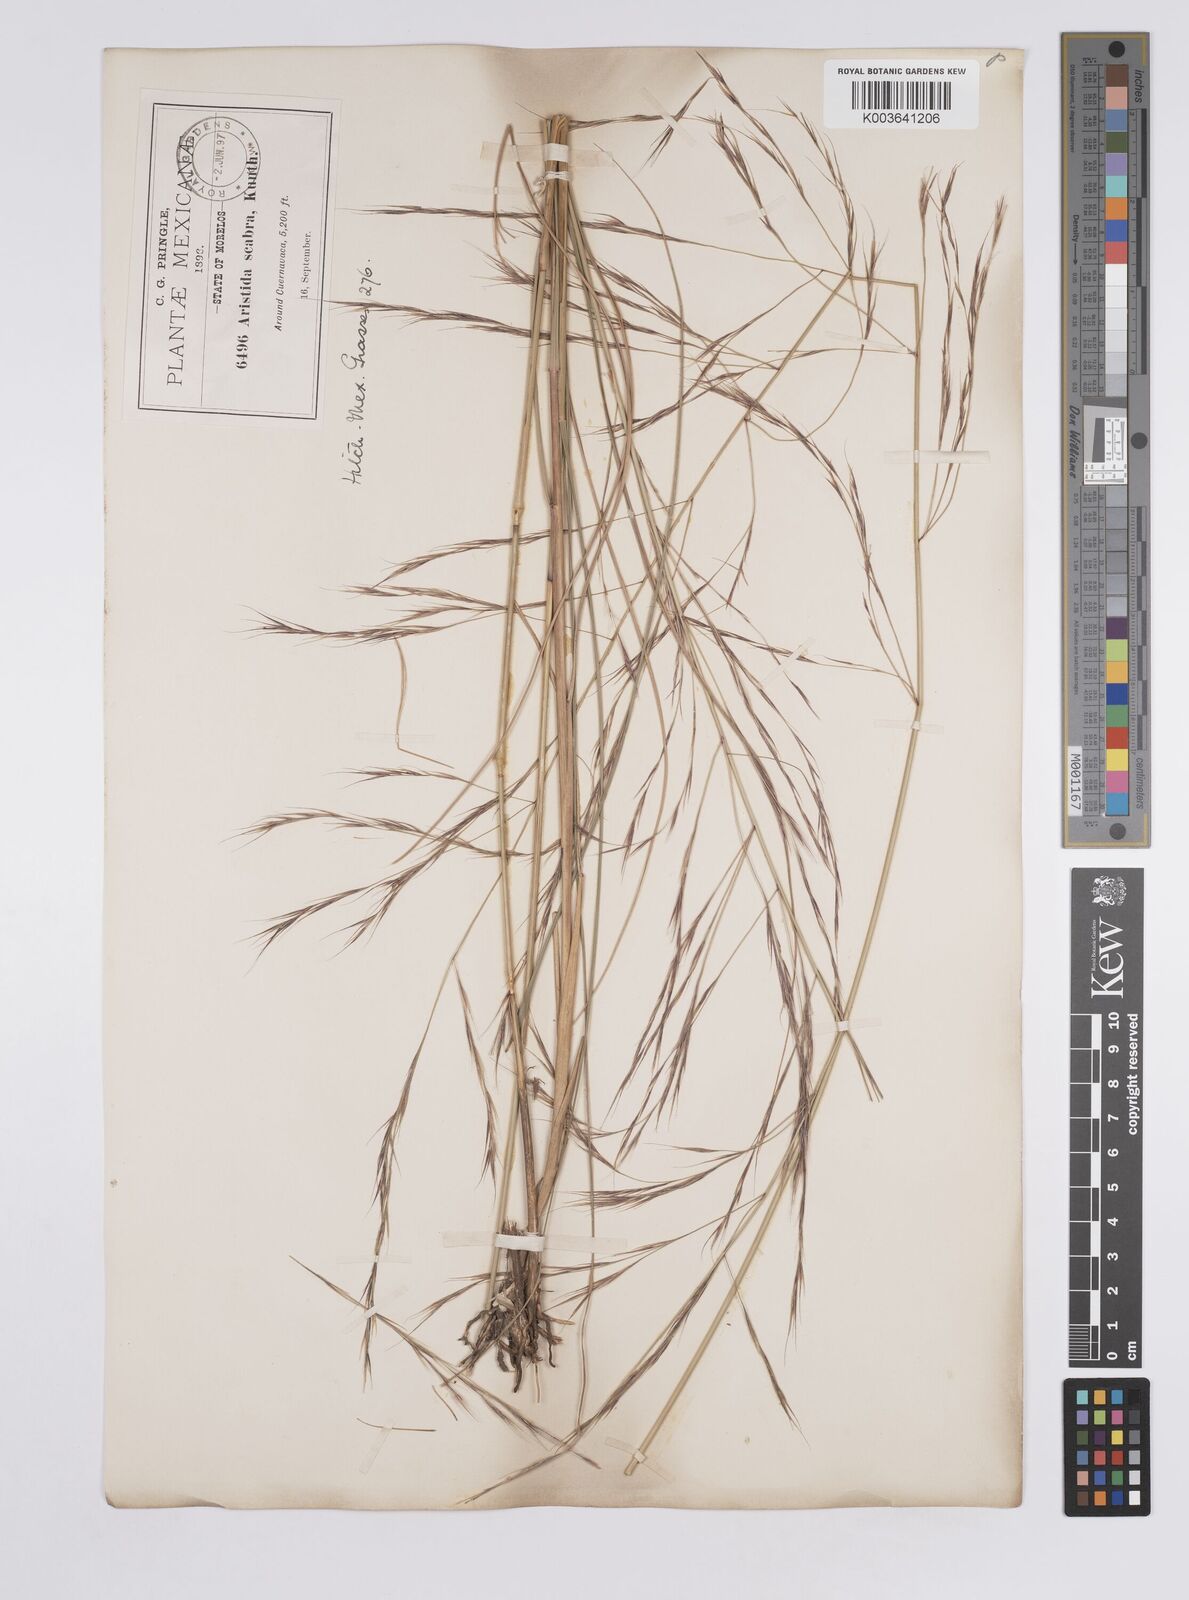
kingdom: Plantae
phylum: Tracheophyta
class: Liliopsida
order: Poales
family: Poaceae
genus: Aristida
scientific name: Aristida ternipes
